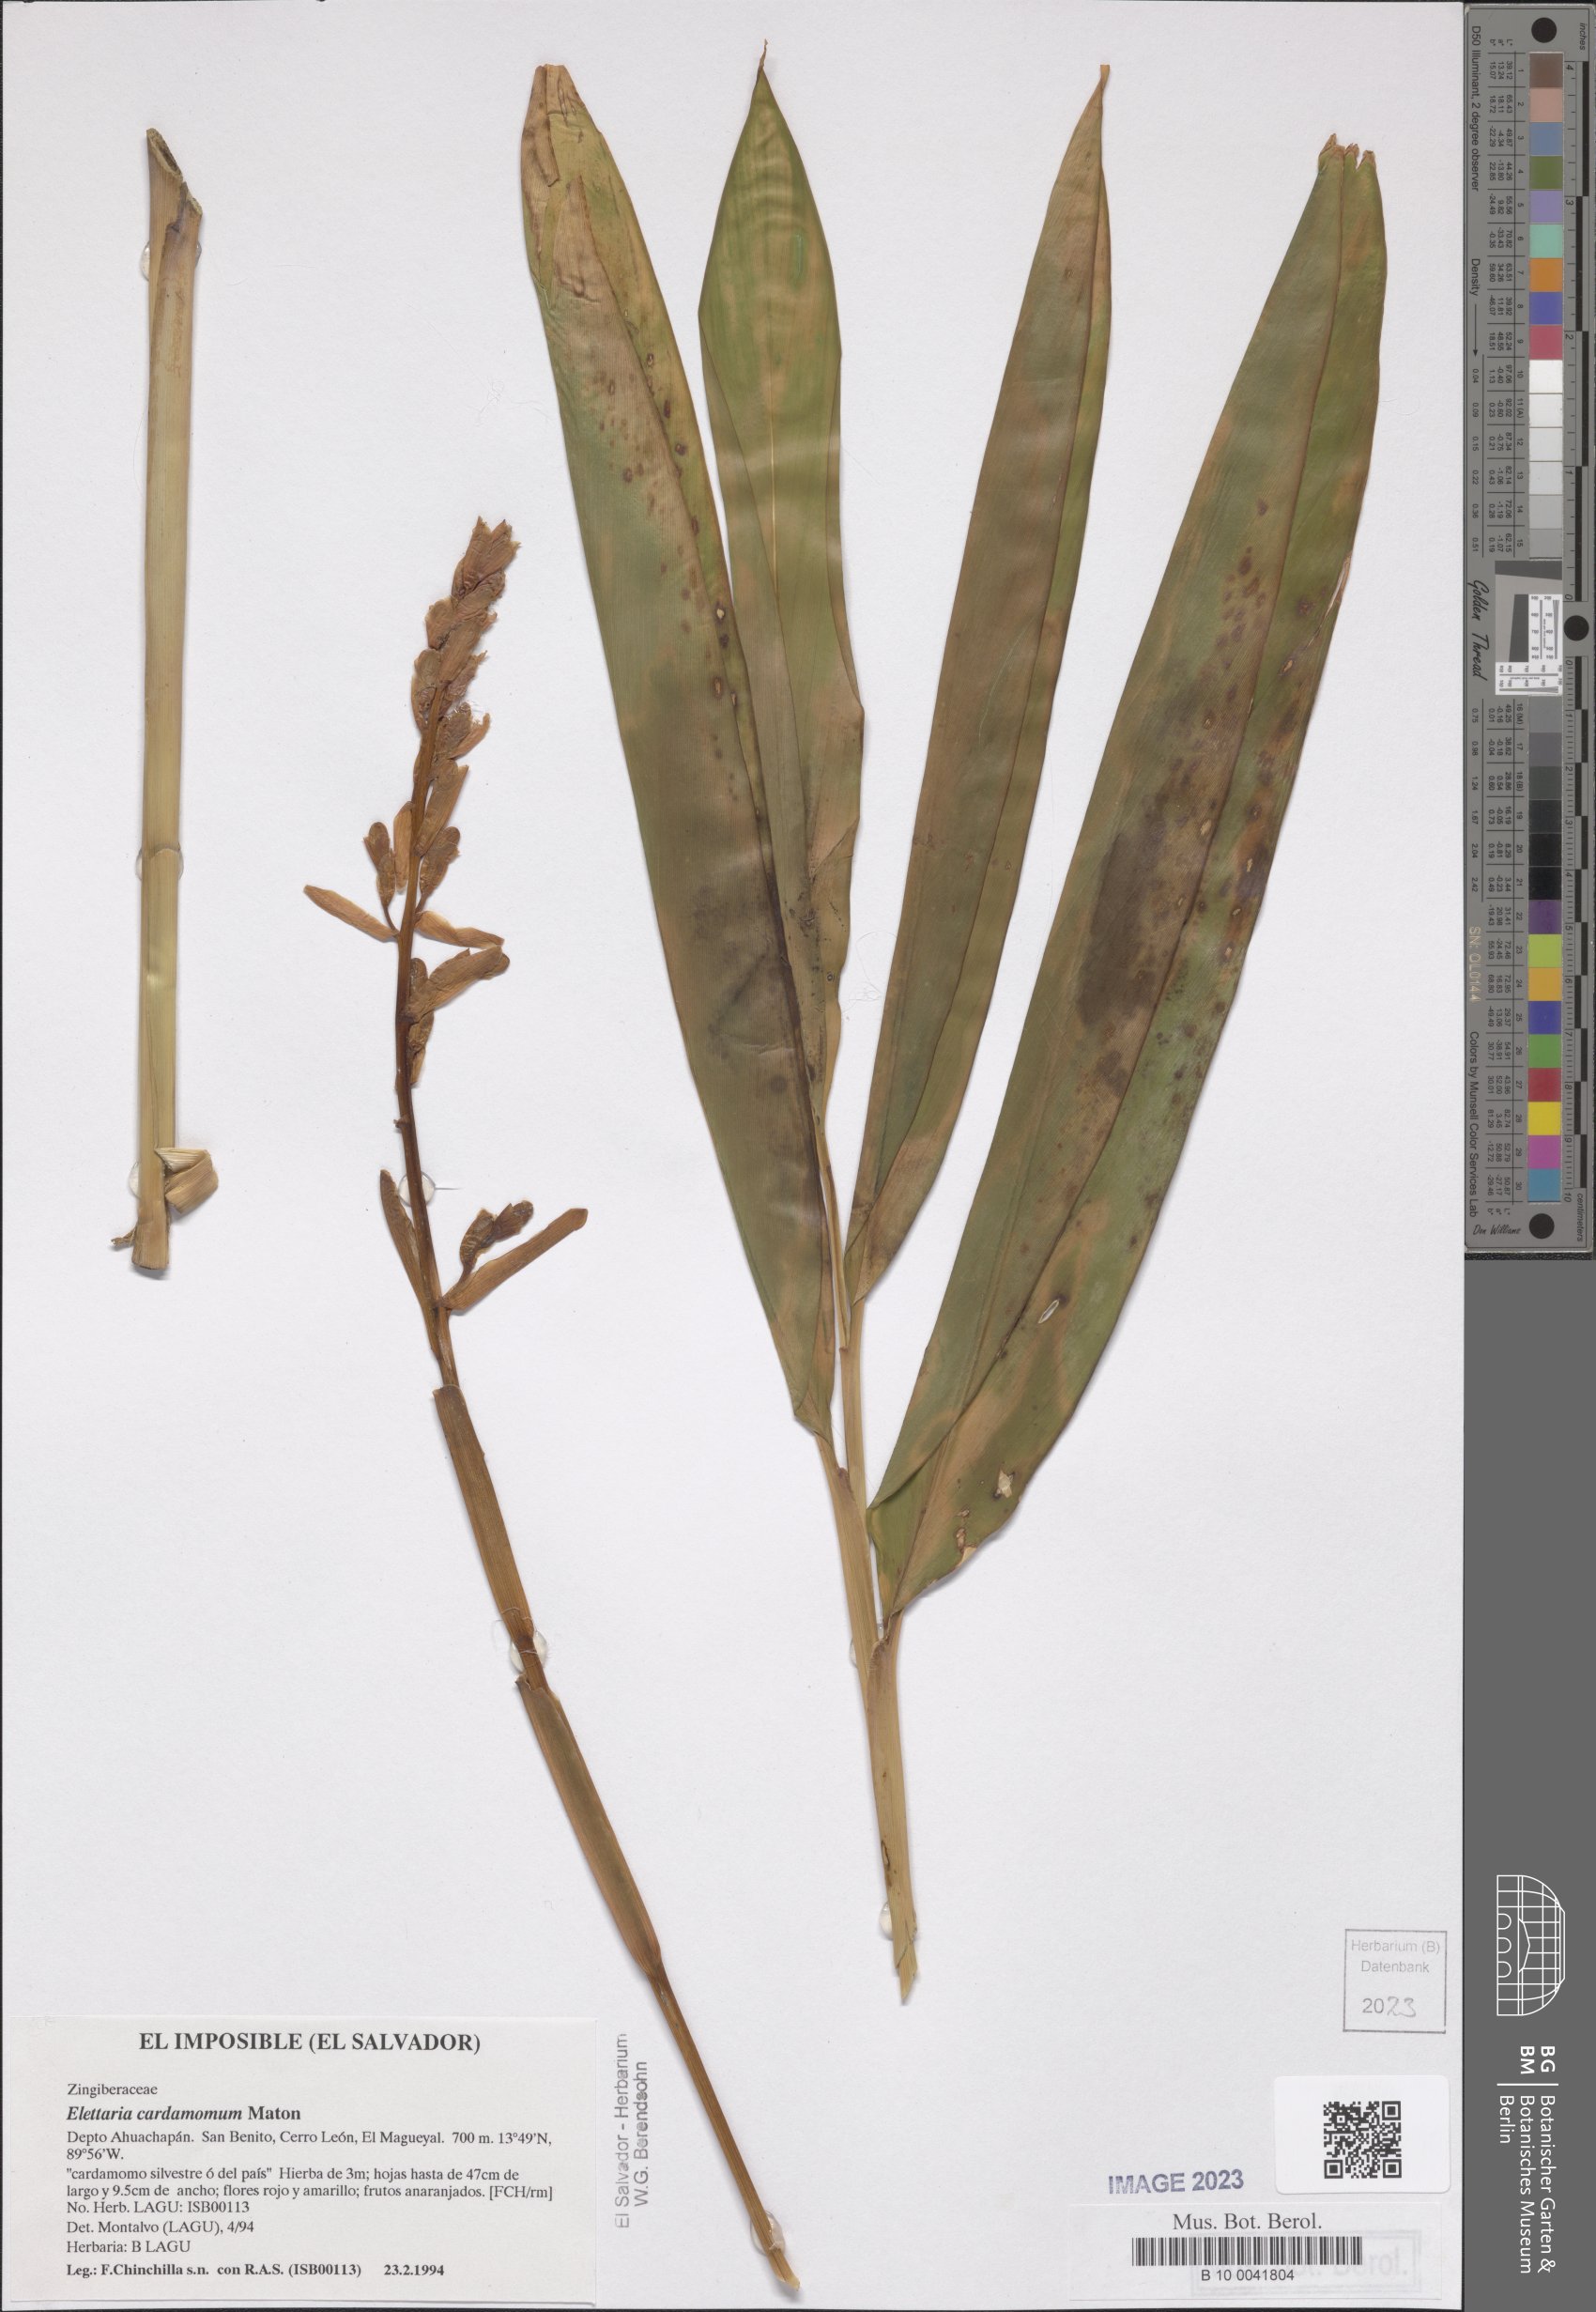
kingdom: Plantae
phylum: Tracheophyta
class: Liliopsida
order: Zingiberales
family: Zingiberaceae
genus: Renealmia
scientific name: Renealmia pacifica
